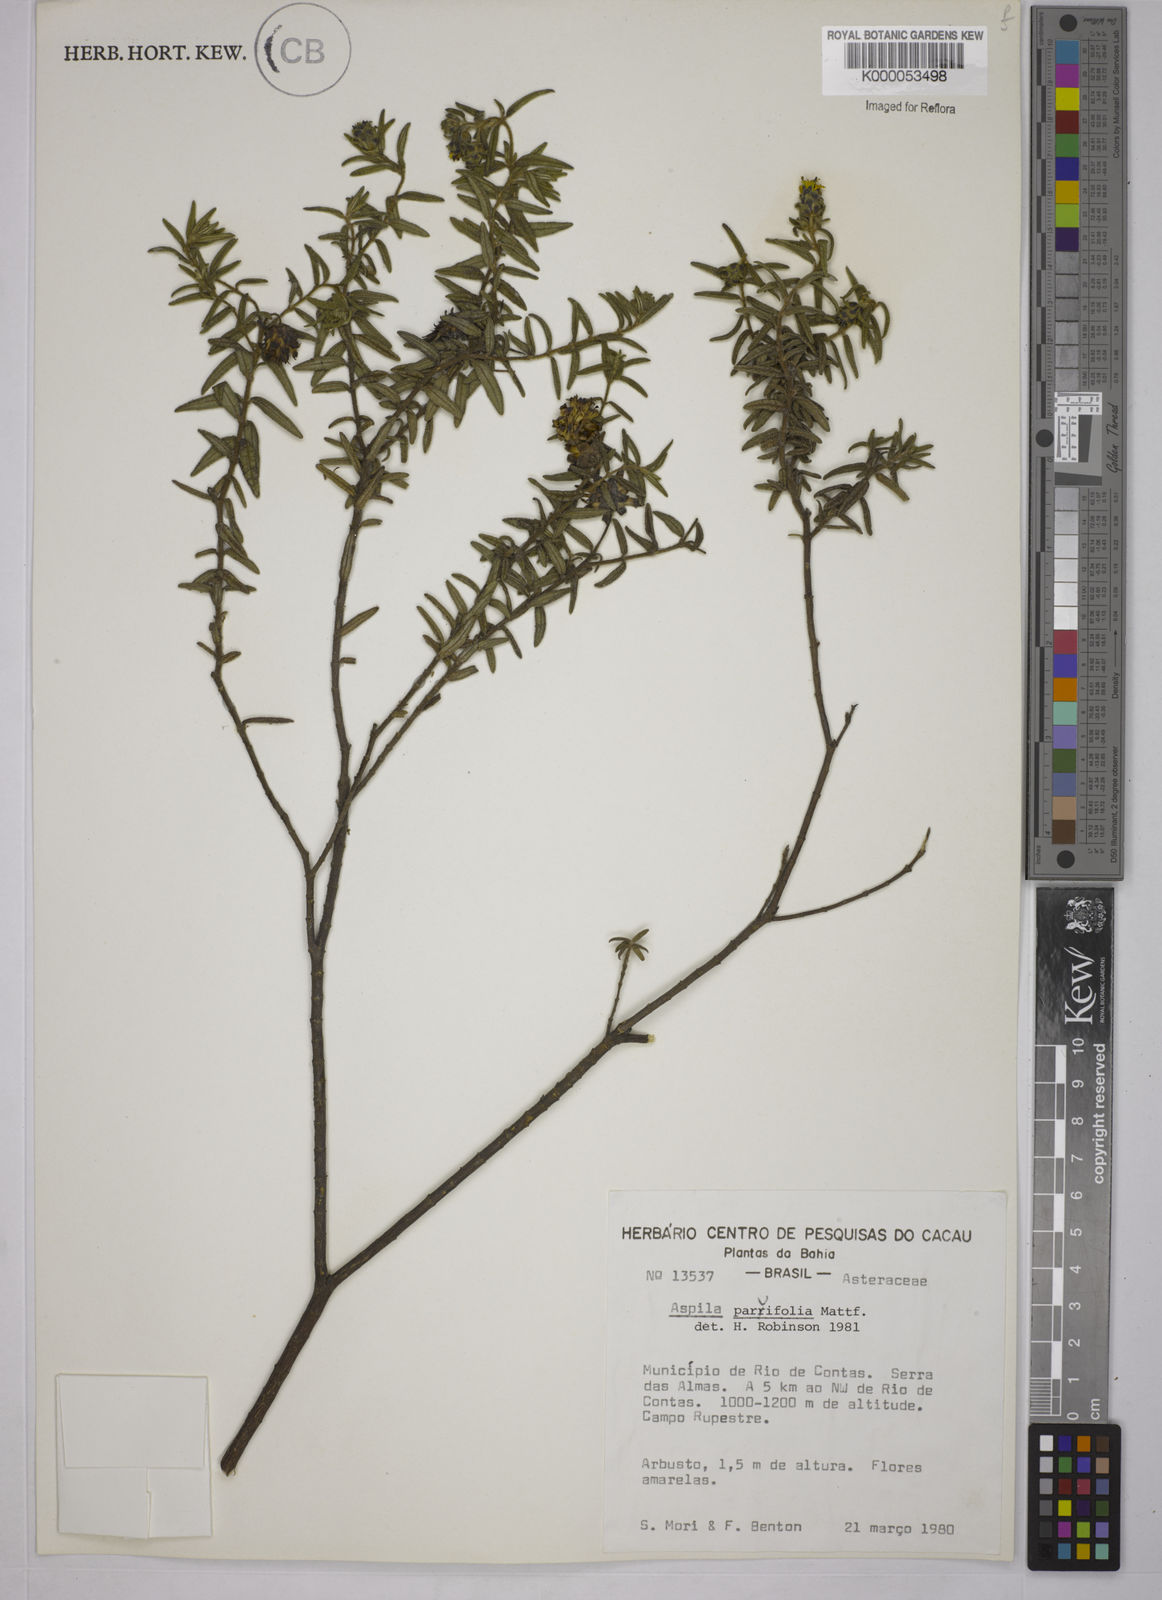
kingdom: Plantae
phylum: Tracheophyta
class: Magnoliopsida
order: Asterales
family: Asteraceae
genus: Aspilia
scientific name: Aspilia foliosa
